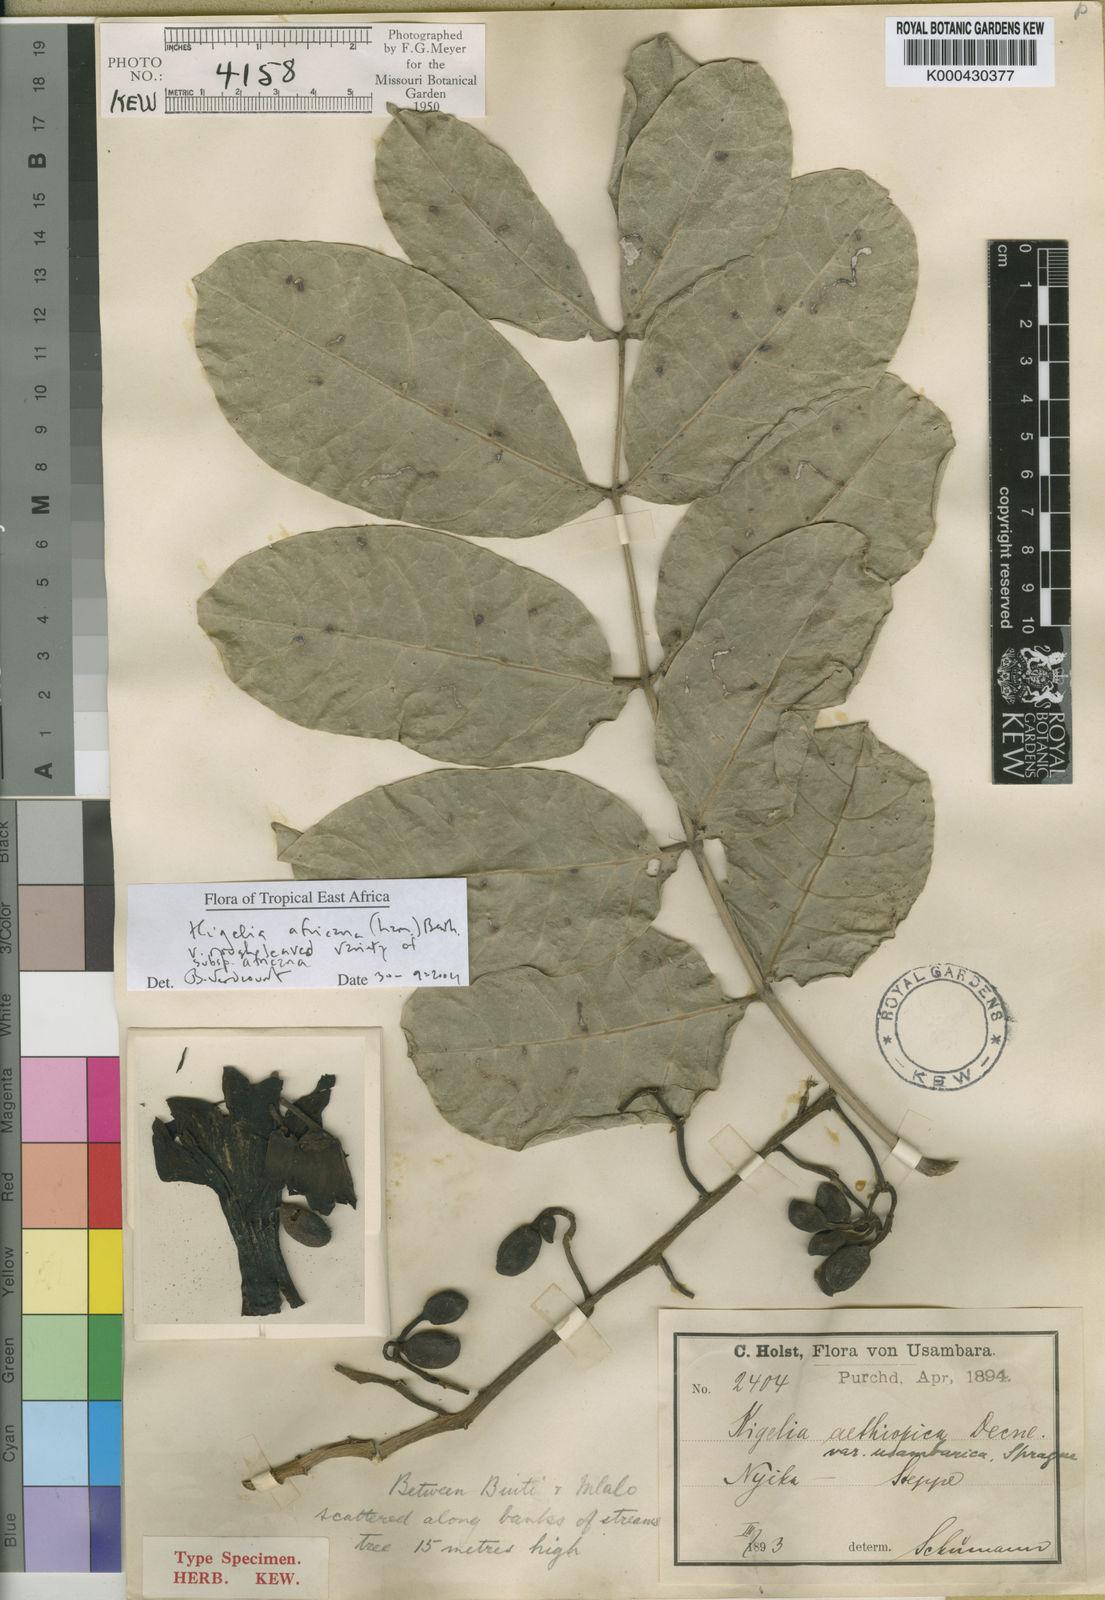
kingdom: Plantae
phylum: Tracheophyta
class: Magnoliopsida
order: Lamiales
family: Bignoniaceae
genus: Kigelia
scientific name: Kigelia africana
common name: Sausage tree
